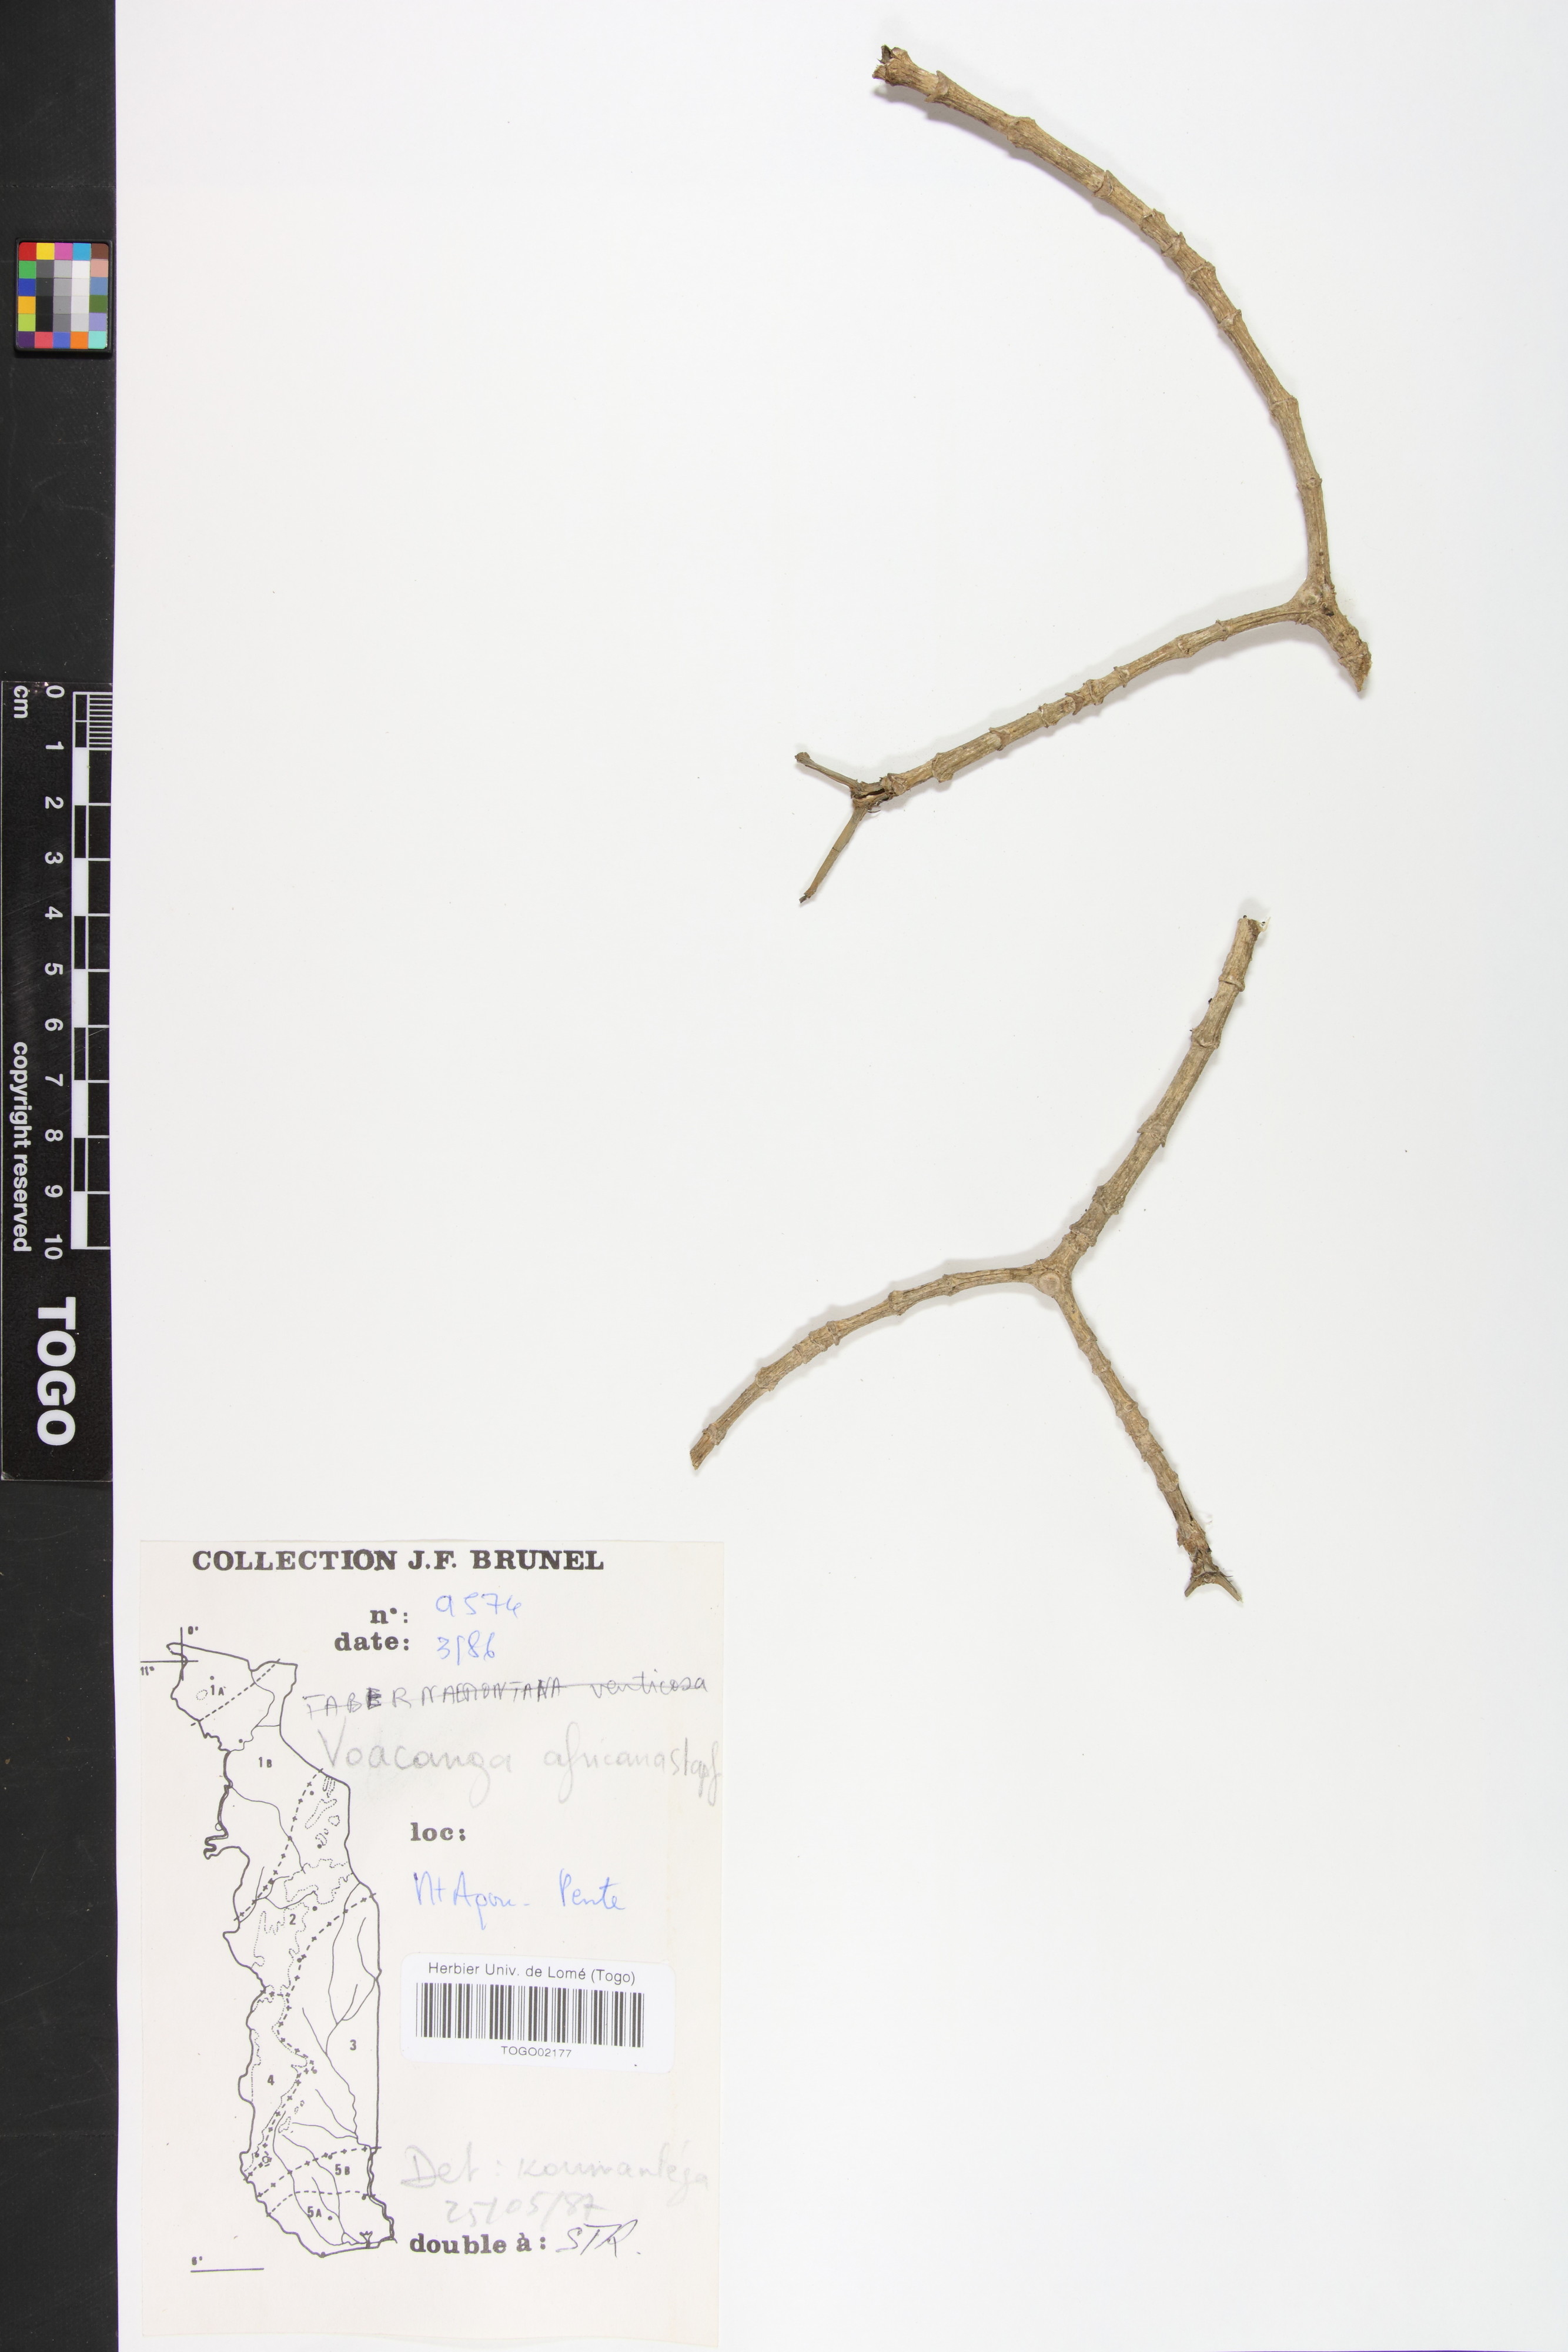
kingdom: Plantae
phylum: Tracheophyta
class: Magnoliopsida
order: Gentianales
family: Apocynaceae
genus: Voacanga
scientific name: Voacanga africana
